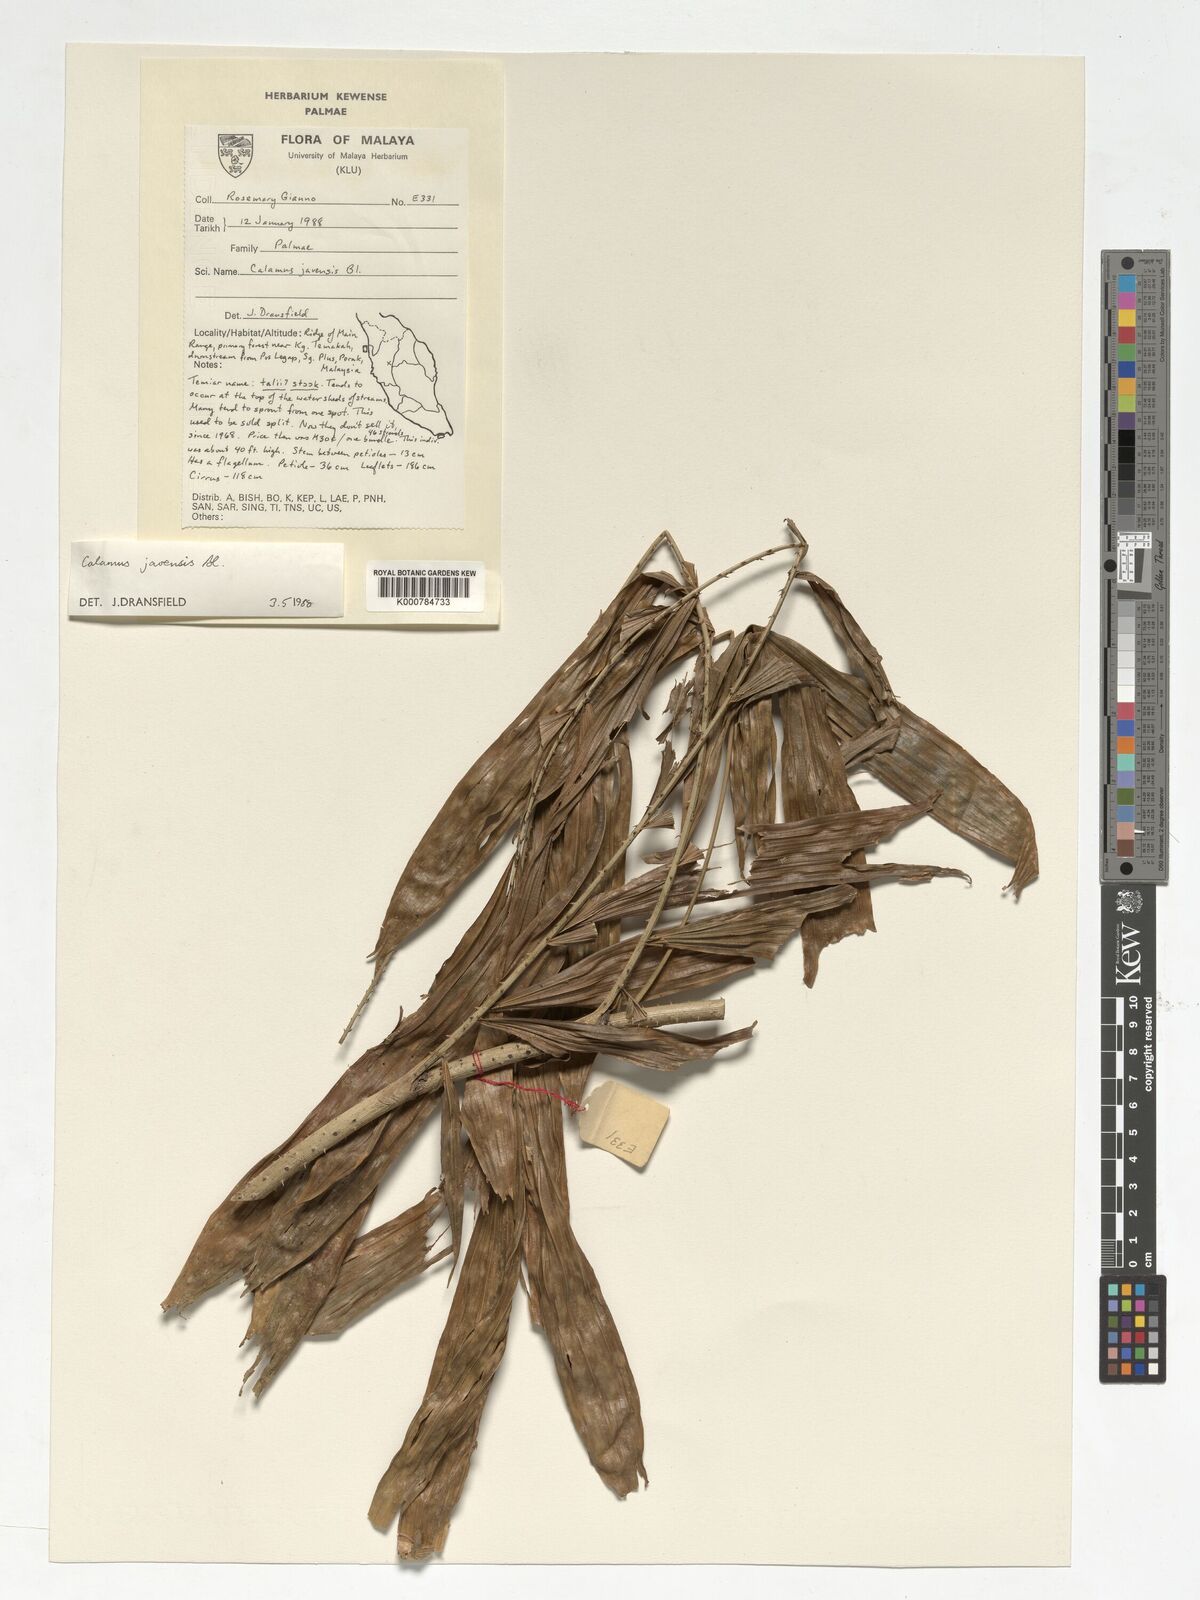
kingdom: Plantae
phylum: Tracheophyta
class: Liliopsida
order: Arecales
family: Arecaceae
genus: Calamus
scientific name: Calamus javensis
